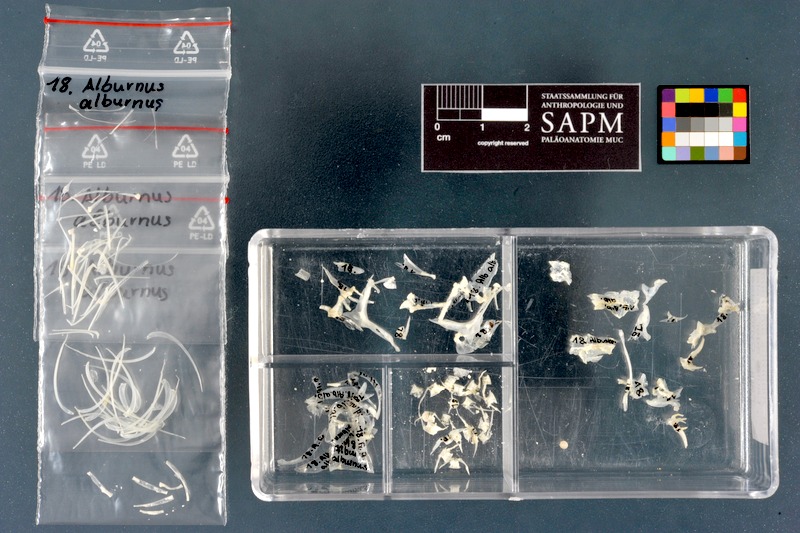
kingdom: Animalia
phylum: Chordata
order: Cypriniformes
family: Cyprinidae
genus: Alburnus
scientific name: Alburnus alburnus
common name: Bleak
